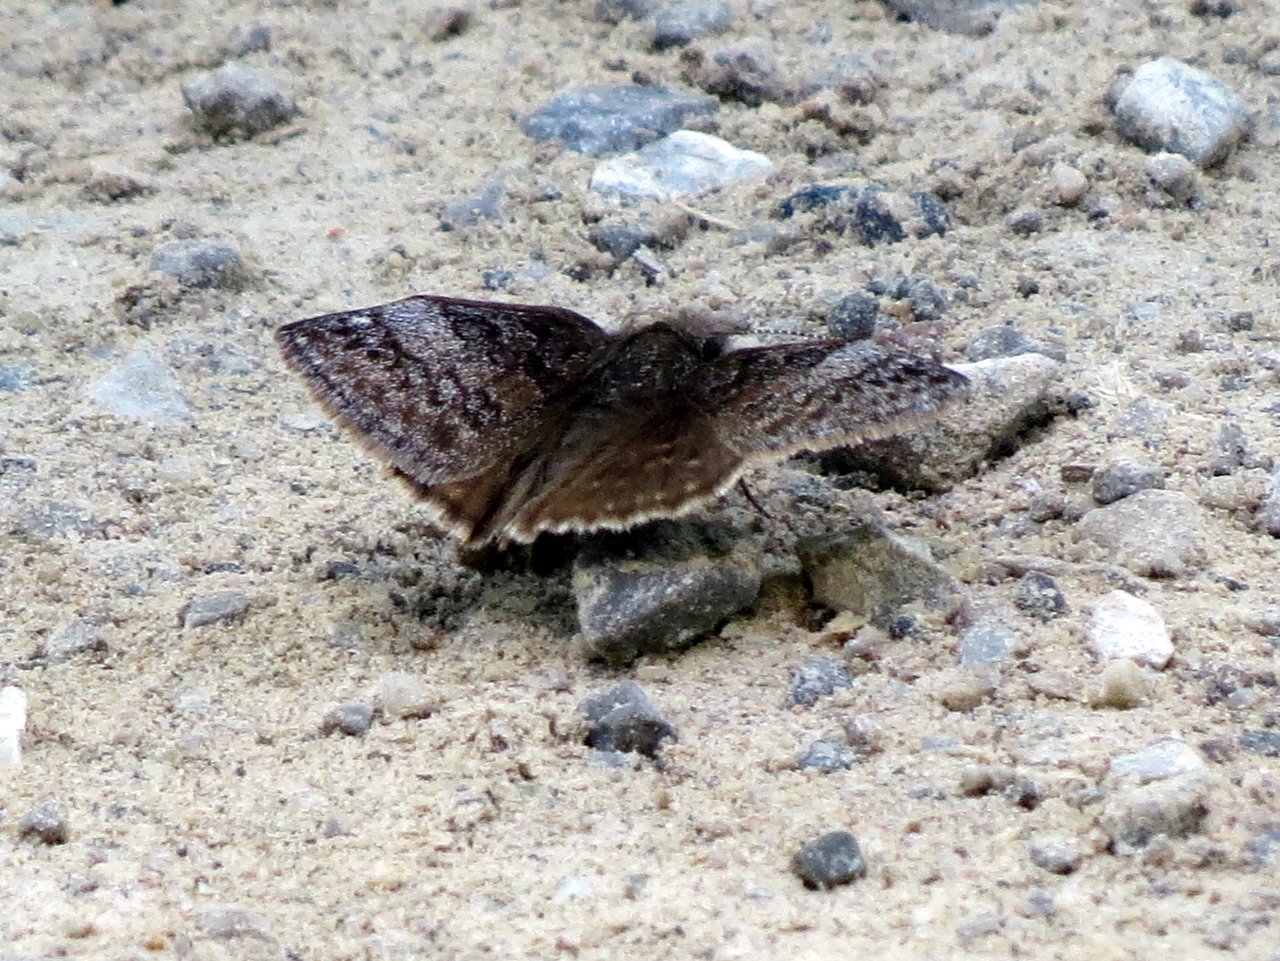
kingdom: Animalia
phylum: Arthropoda
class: Insecta
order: Lepidoptera
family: Hesperiidae
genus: Erynnis
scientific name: Erynnis icelus
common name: Dreamy Duskywing
